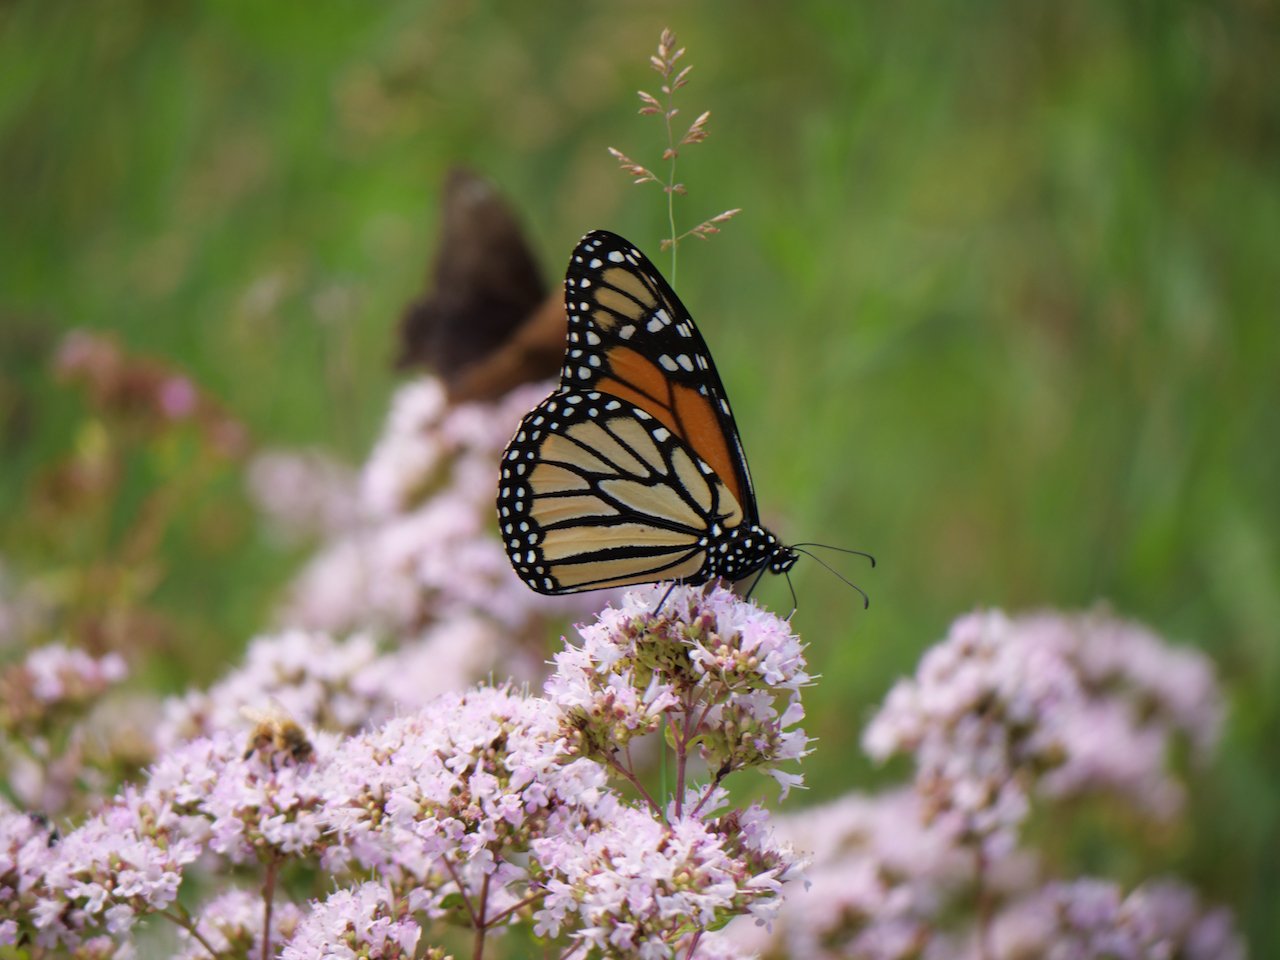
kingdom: Animalia
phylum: Arthropoda
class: Insecta
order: Lepidoptera
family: Nymphalidae
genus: Danaus
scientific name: Danaus plexippus
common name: Monarch
